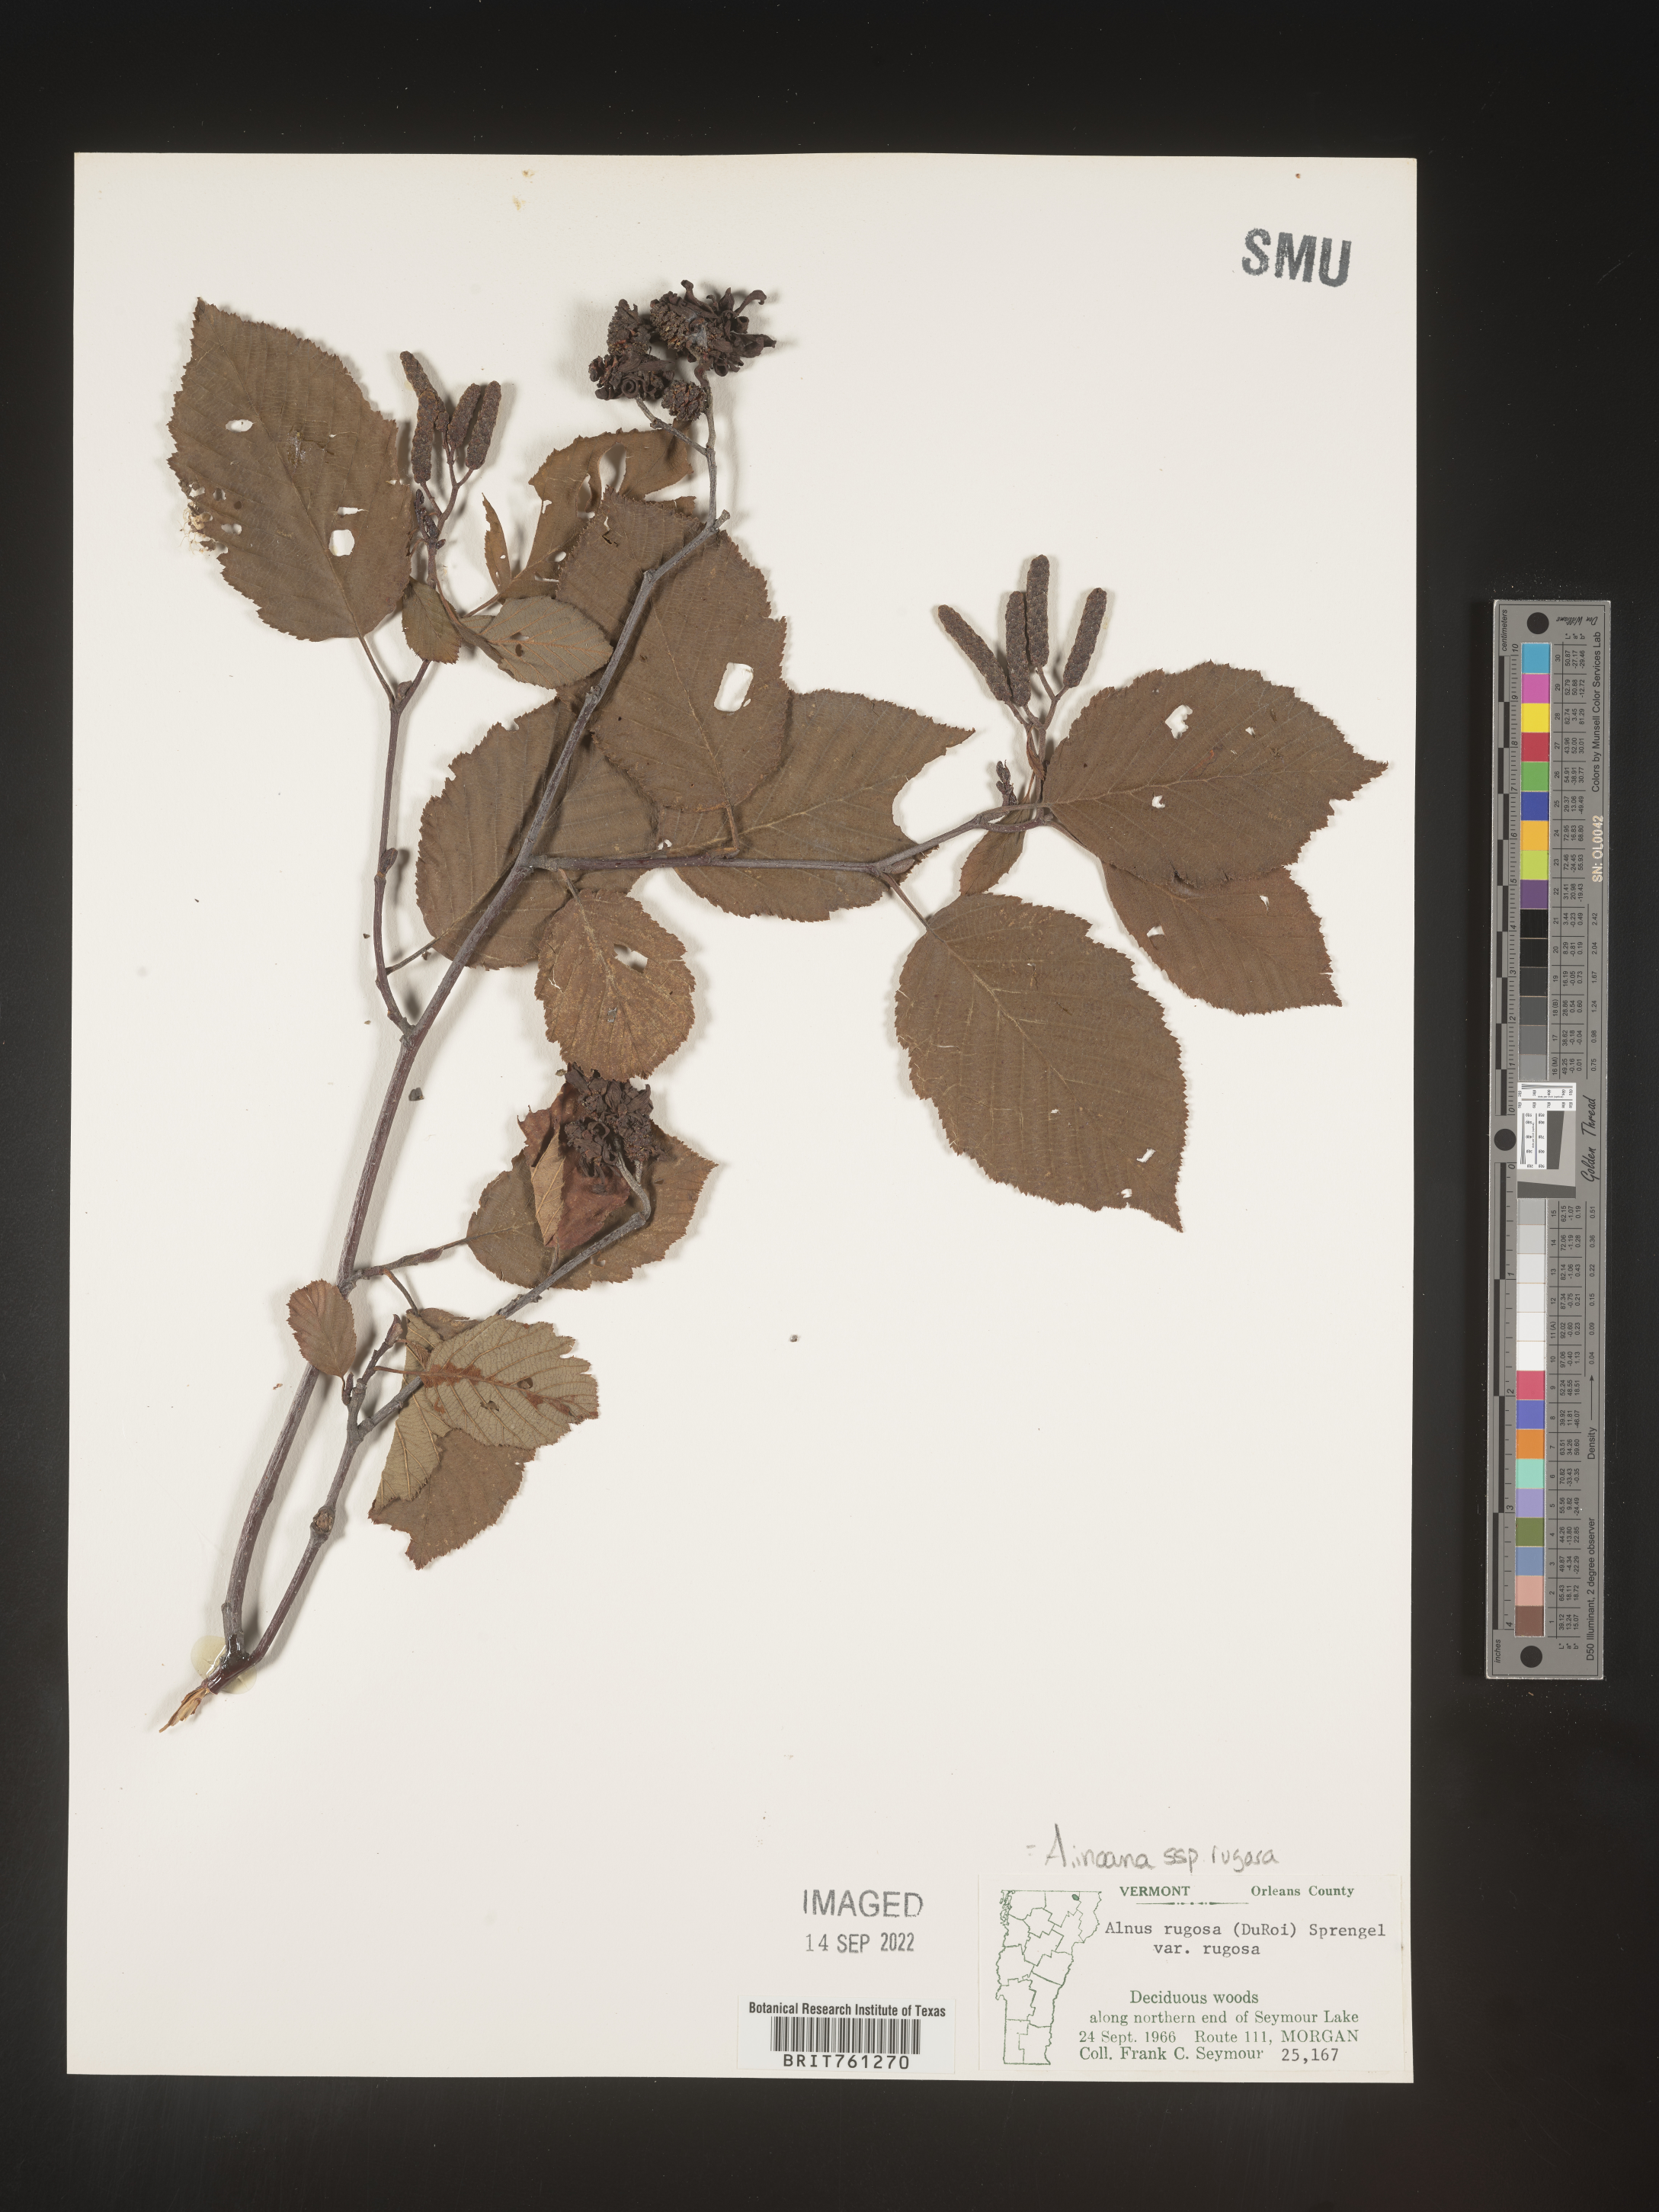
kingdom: Plantae
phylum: Tracheophyta
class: Magnoliopsida
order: Fagales
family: Betulaceae
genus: Alnus
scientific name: Alnus incana
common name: Grey alder
